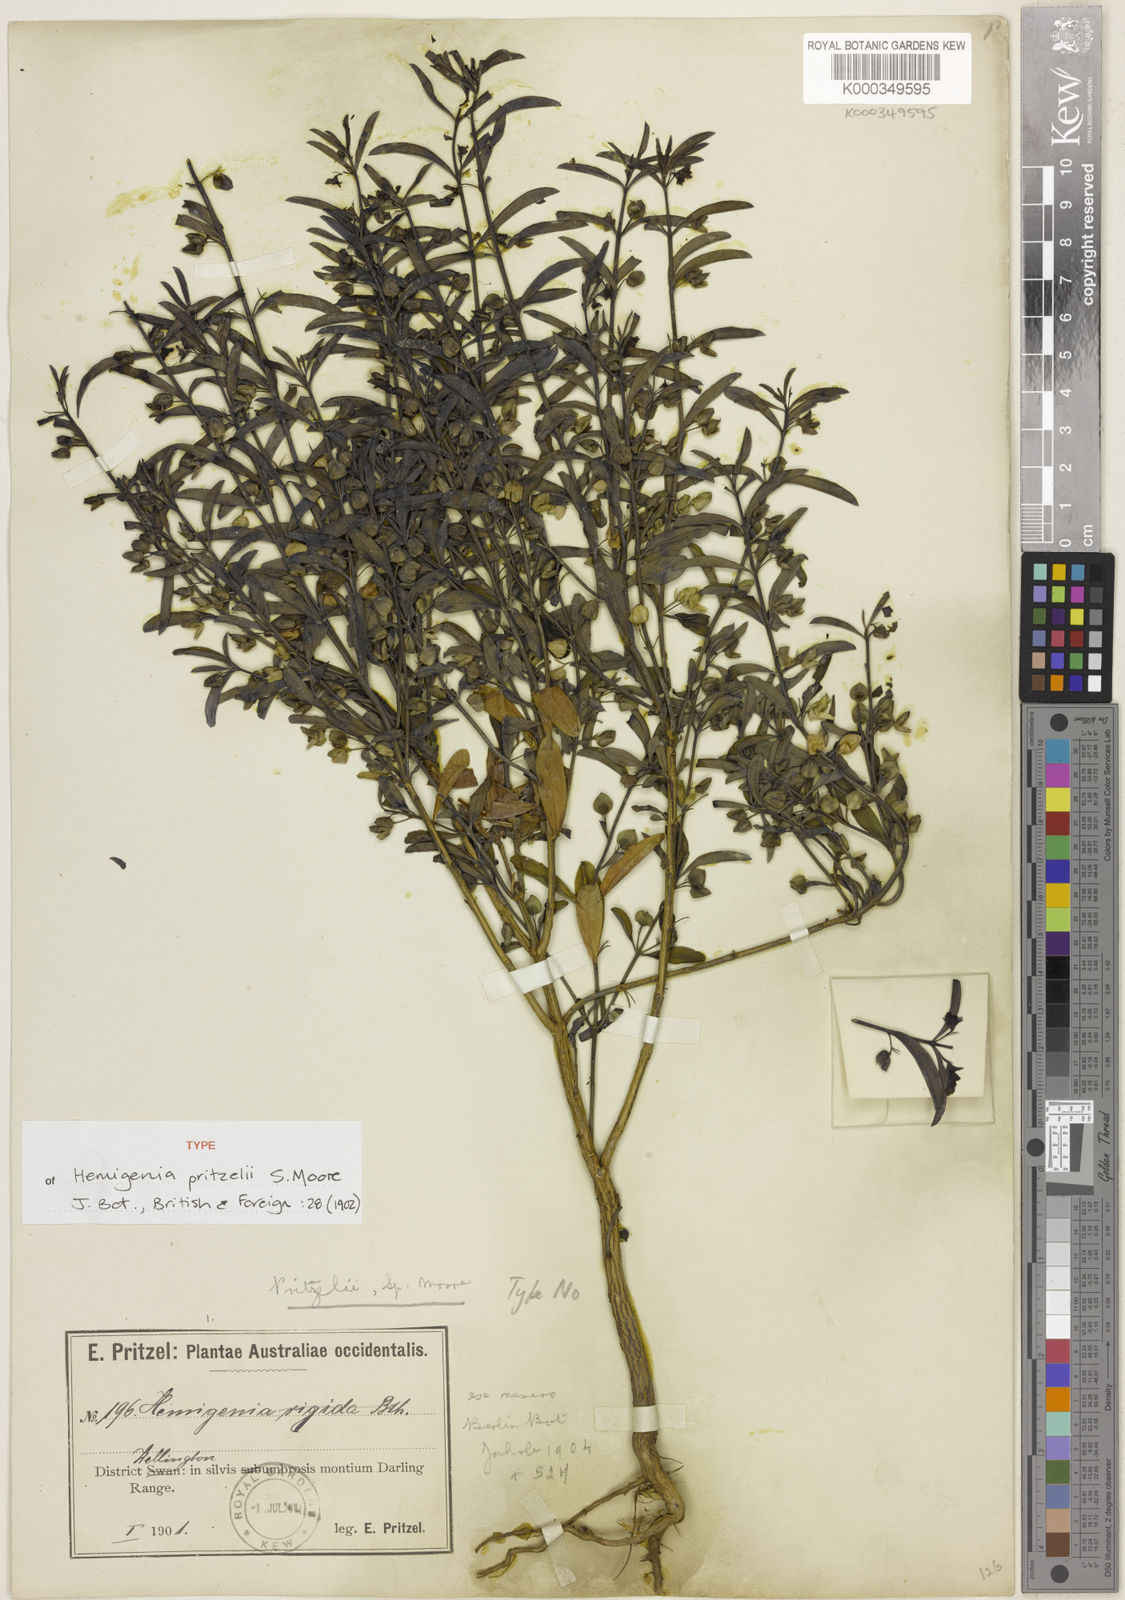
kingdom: Plantae
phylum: Tracheophyta
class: Magnoliopsida
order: Lamiales
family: Lamiaceae
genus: Hemigenia
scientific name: Hemigenia pritzelii
